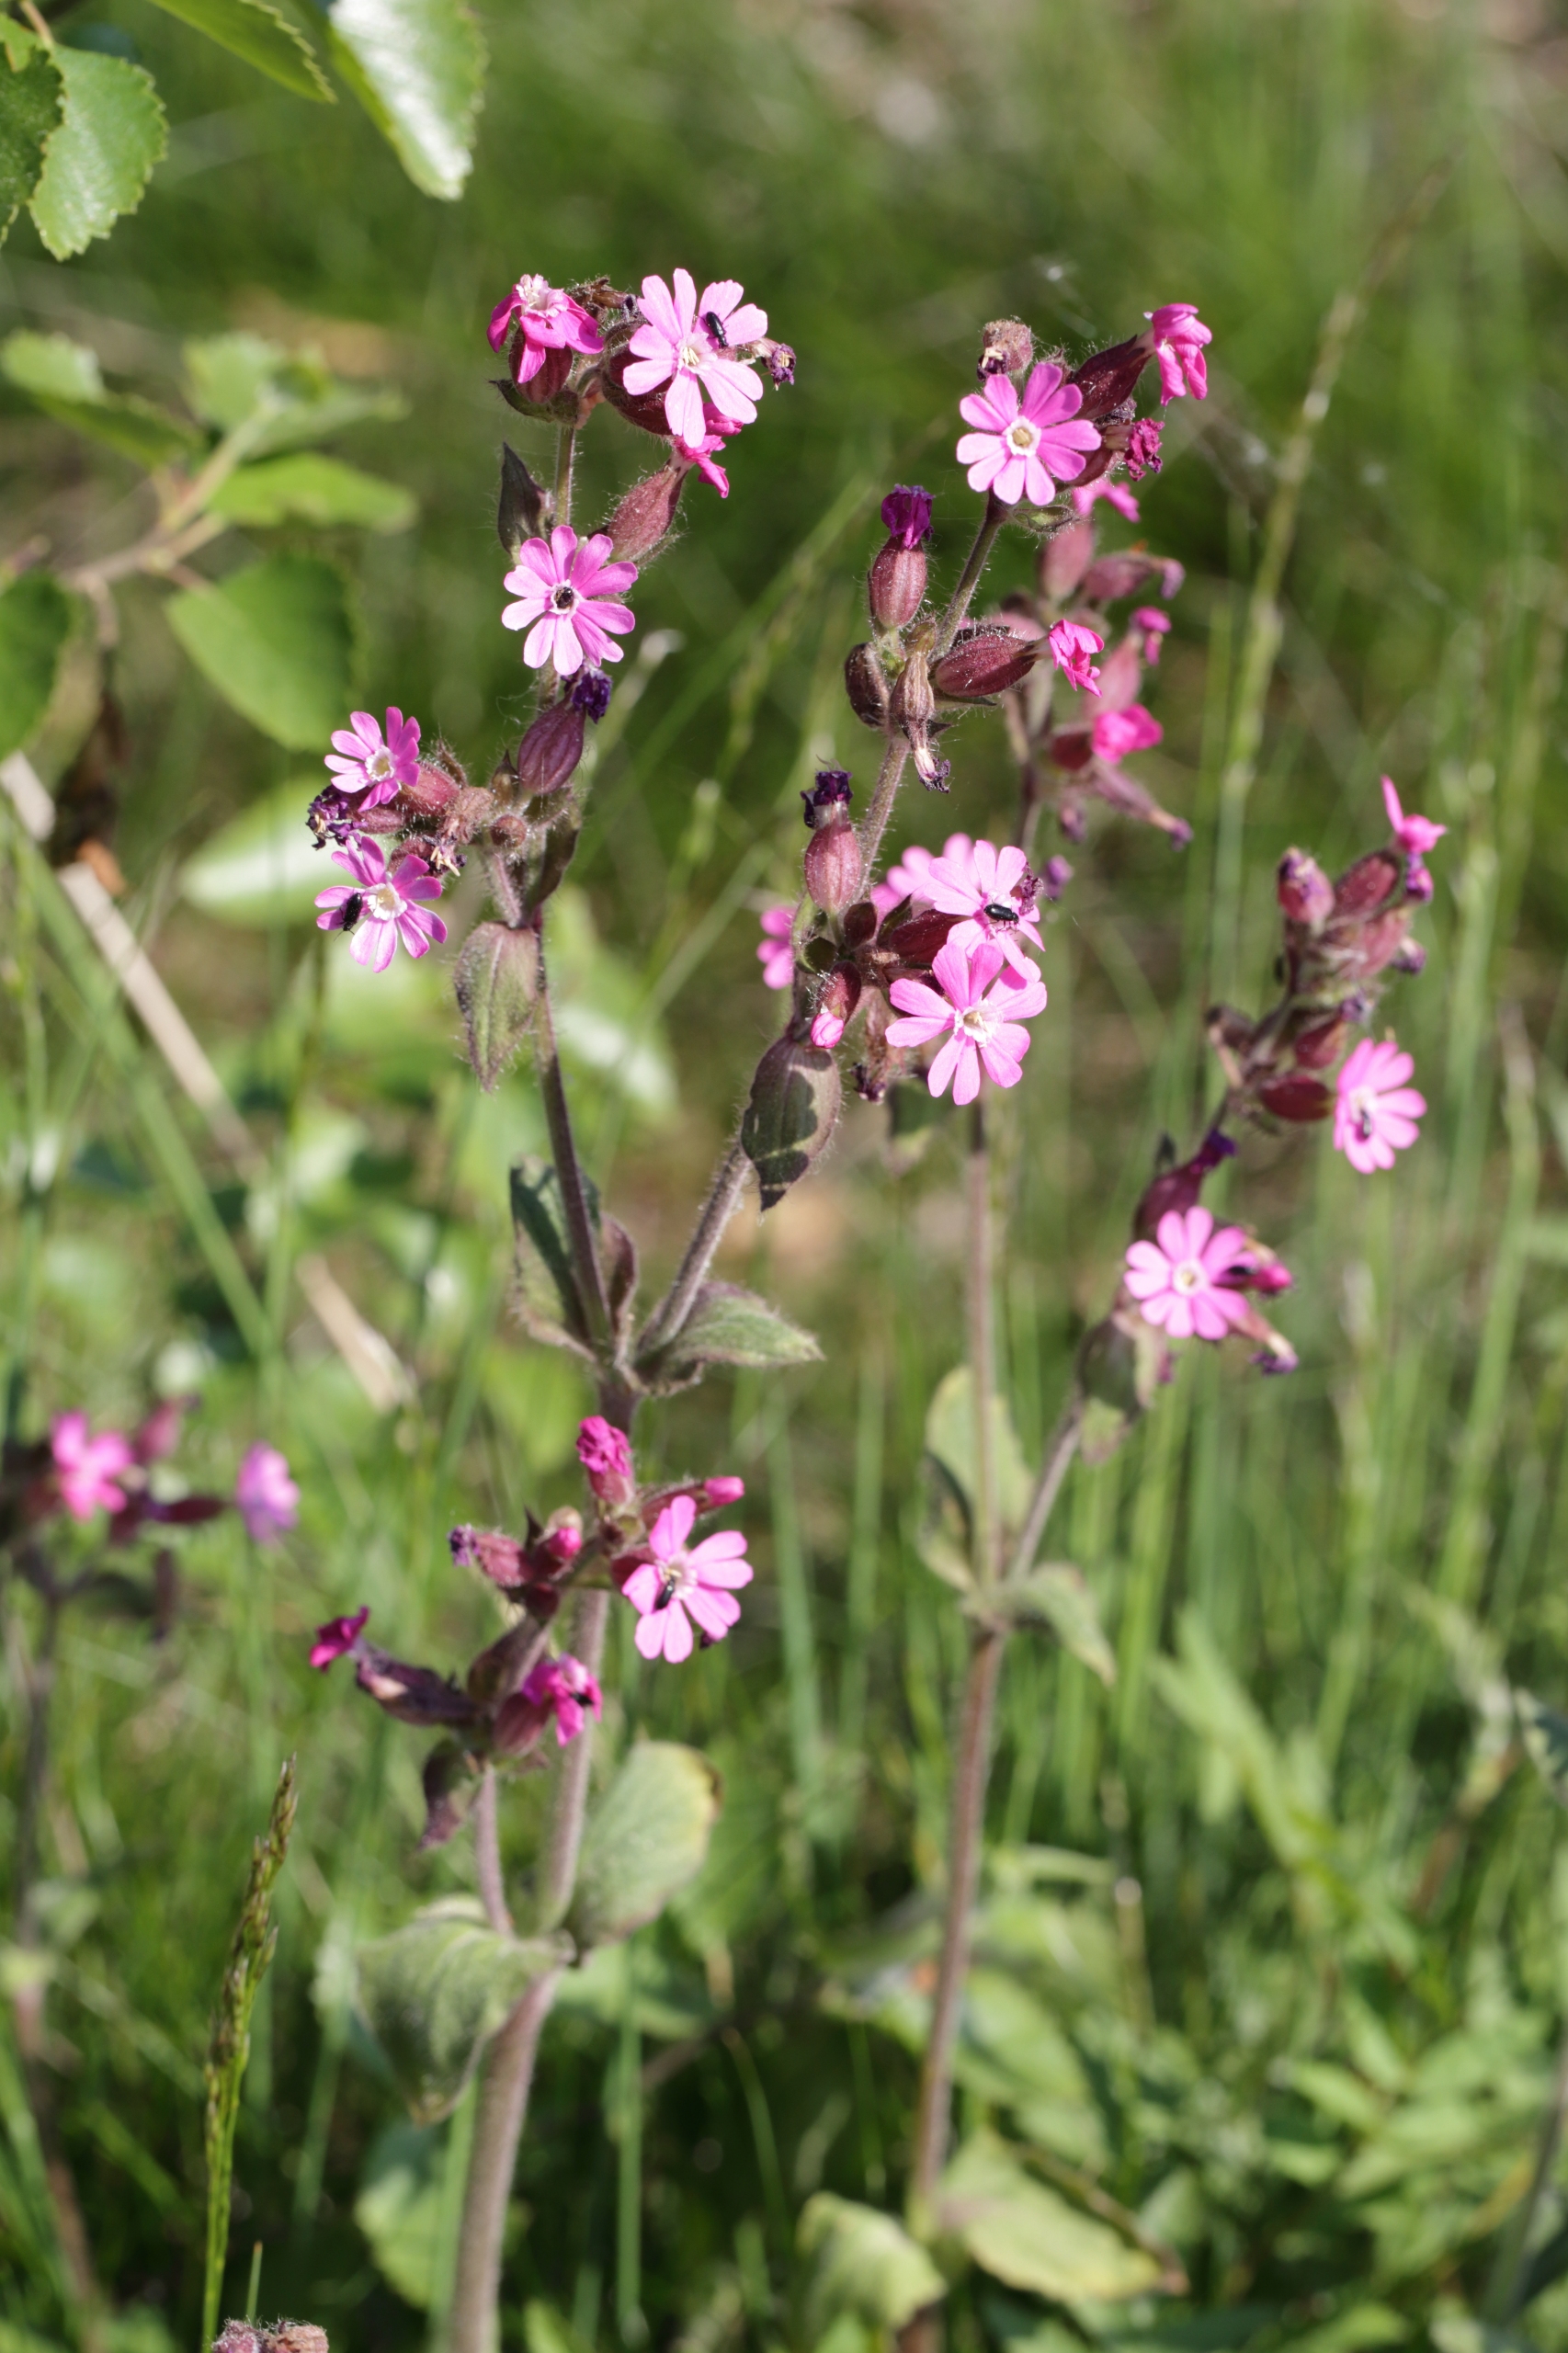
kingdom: Plantae
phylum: Tracheophyta
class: Magnoliopsida
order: Caryophyllales
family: Caryophyllaceae
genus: Silene
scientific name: Silene dioica
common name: Dagpragtstjerne
